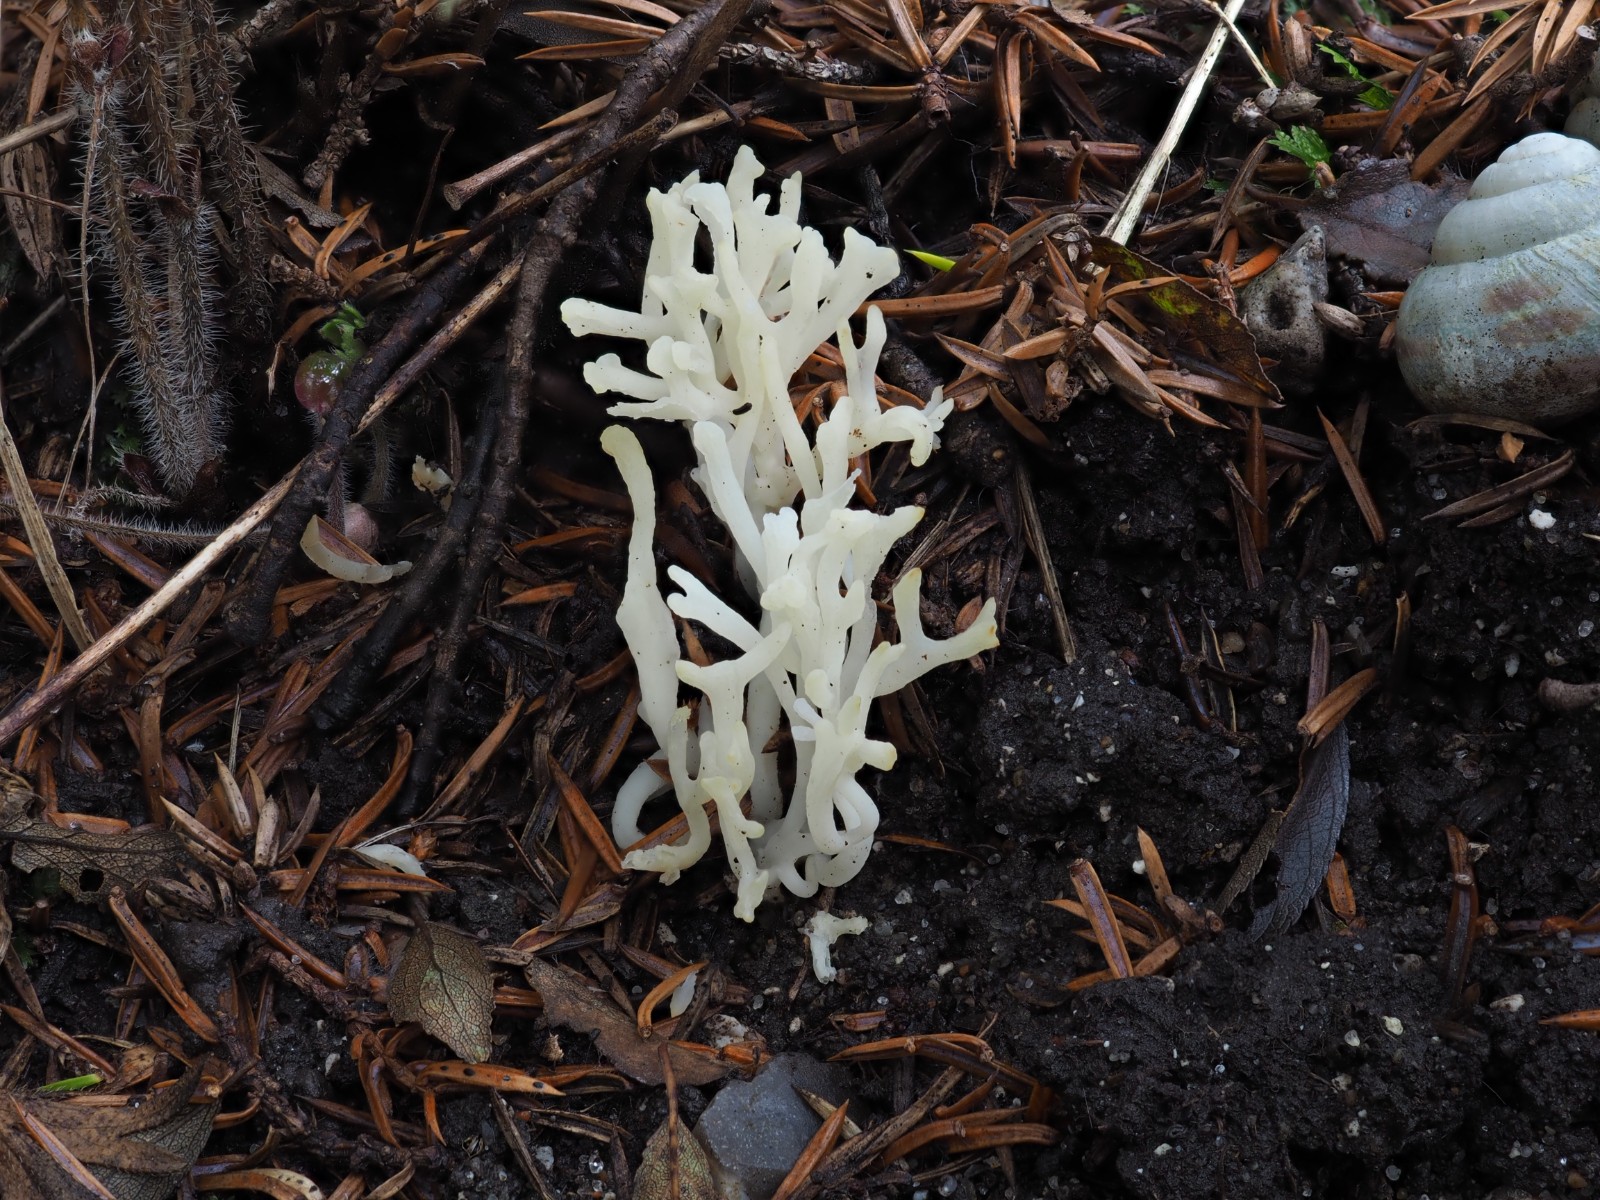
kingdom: Fungi
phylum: Basidiomycota
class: Agaricomycetes
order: Agaricales
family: Clavariaceae
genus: Ramariopsis
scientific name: Ramariopsis
